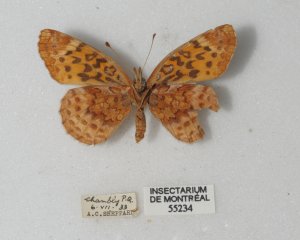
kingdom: Animalia
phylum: Arthropoda
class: Insecta
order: Lepidoptera
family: Nymphalidae
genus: Clossiana
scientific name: Clossiana toddi
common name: Meadow Fritillary
